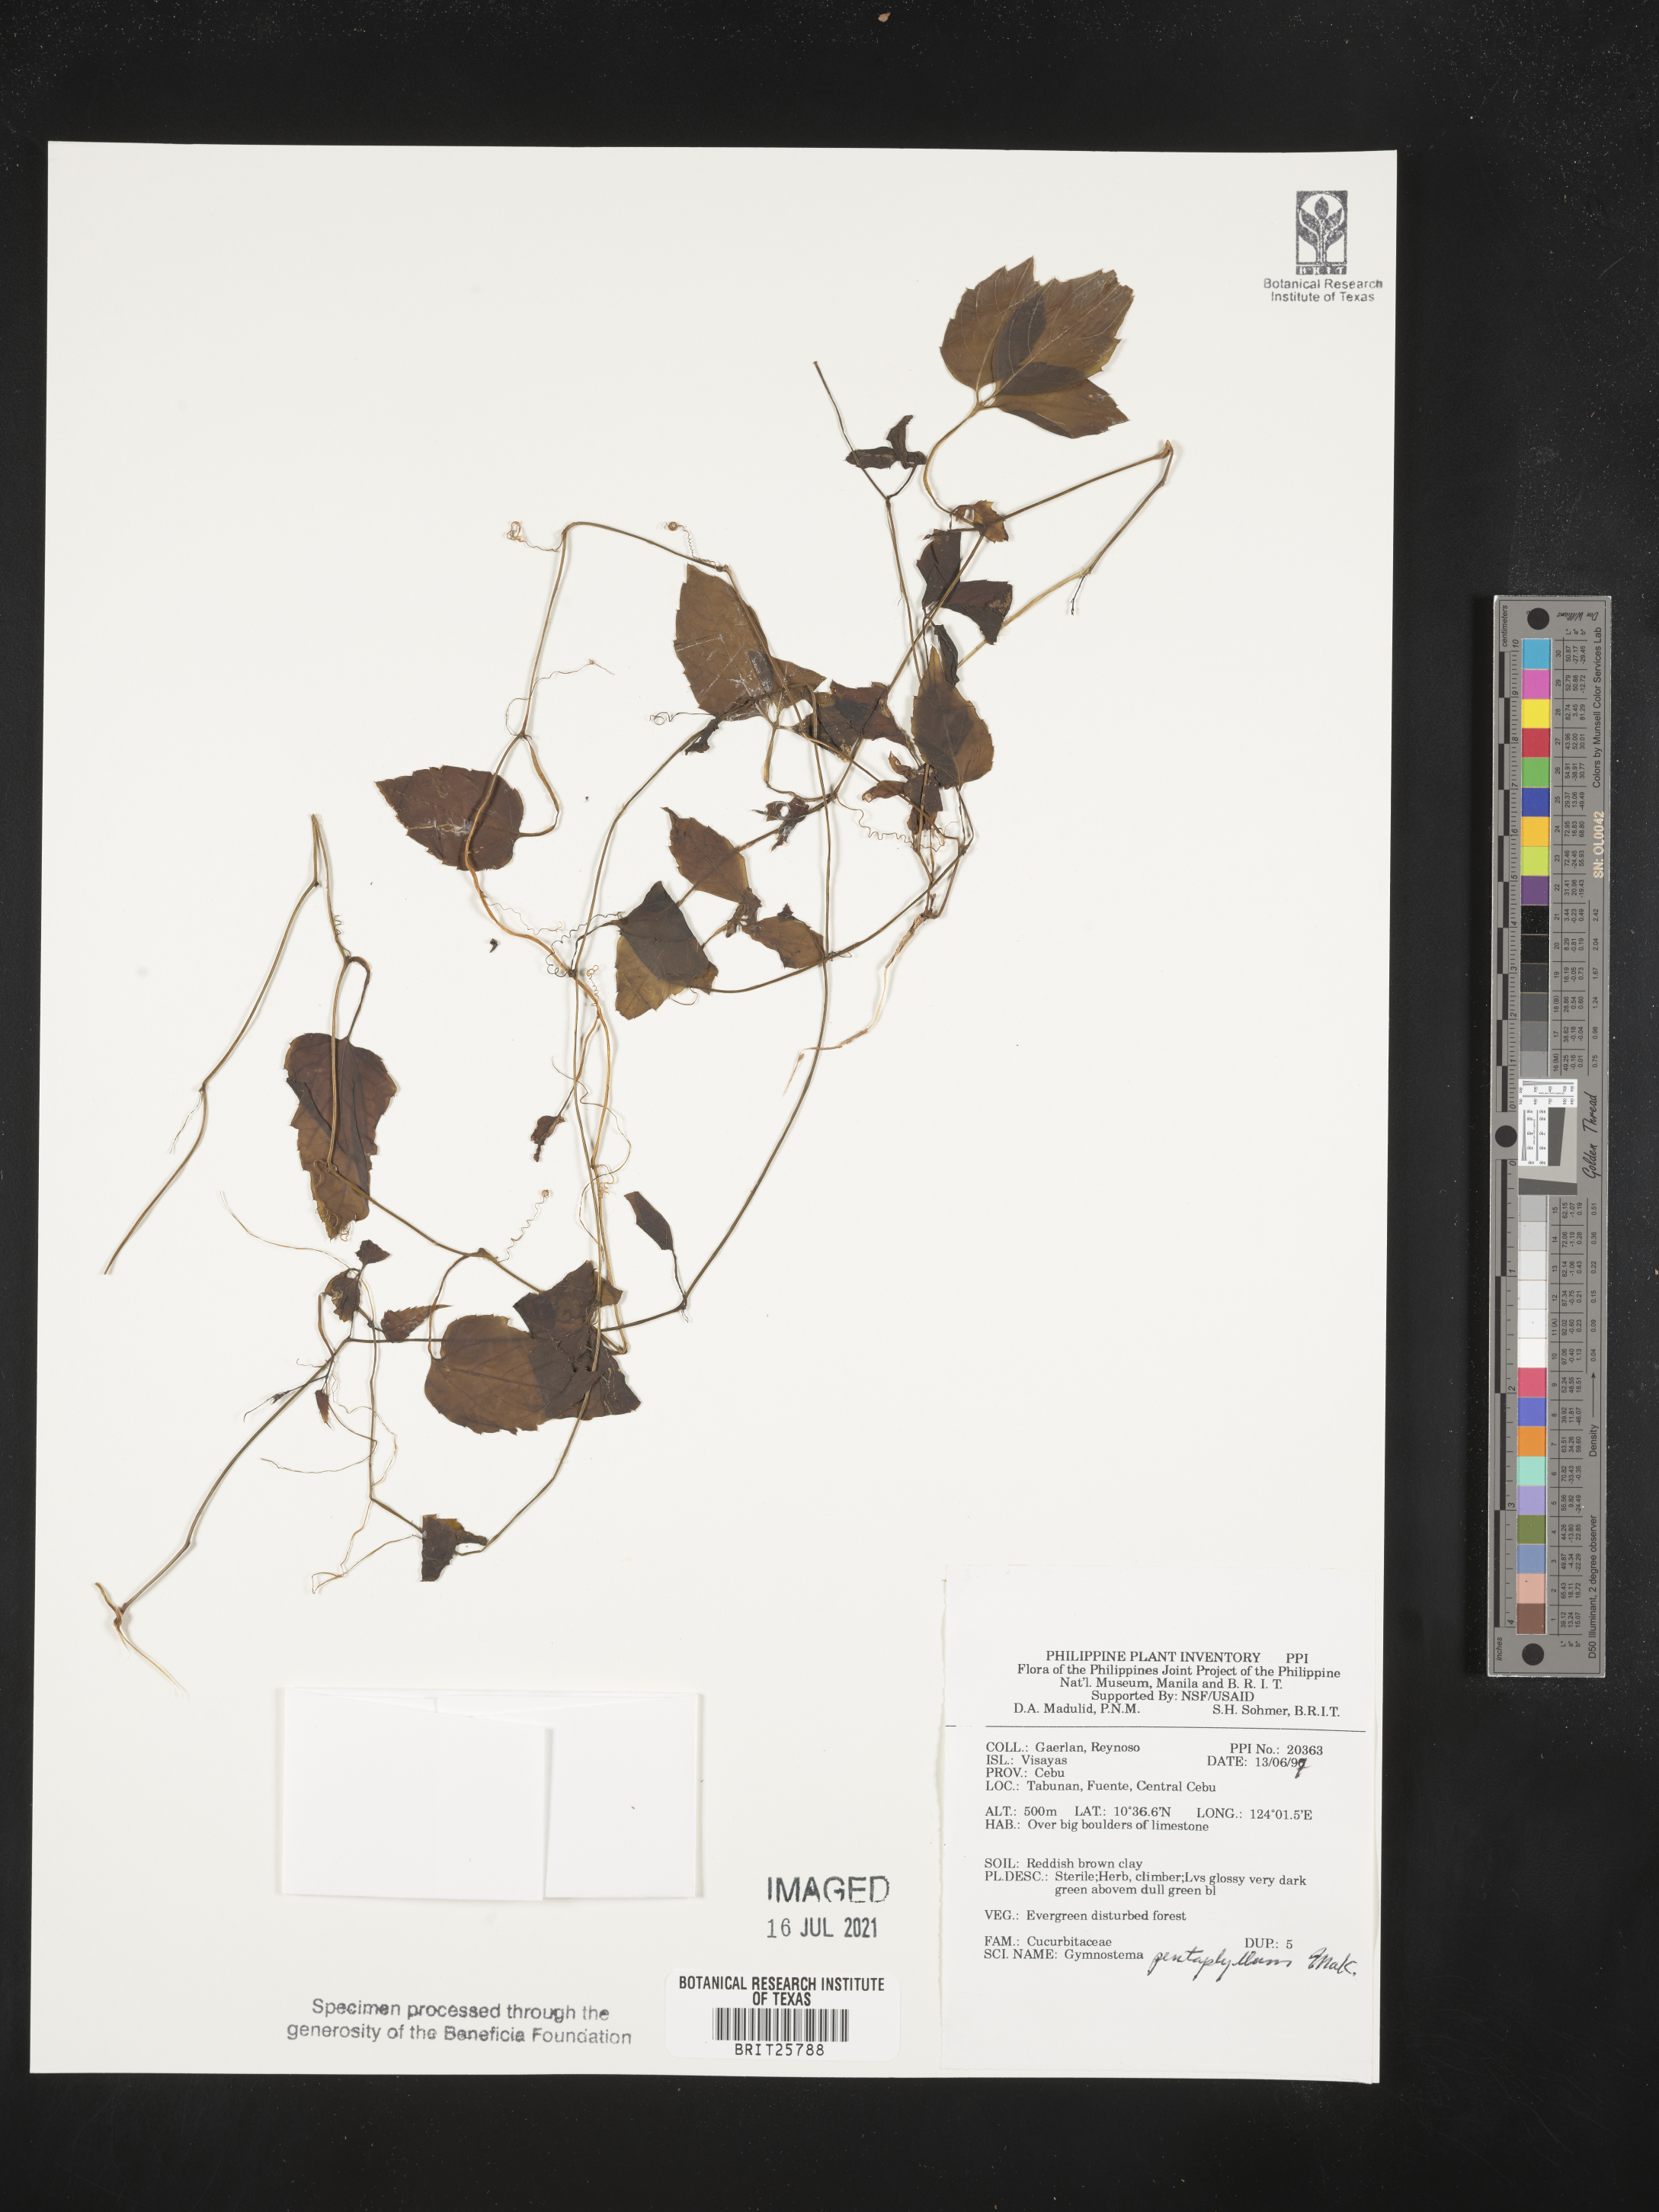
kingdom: Plantae
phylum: Tracheophyta
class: Magnoliopsida
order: Cucurbitales
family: Cucurbitaceae
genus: Gynostemma
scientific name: Gynostemma pentaphyllum
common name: Gynostemma
